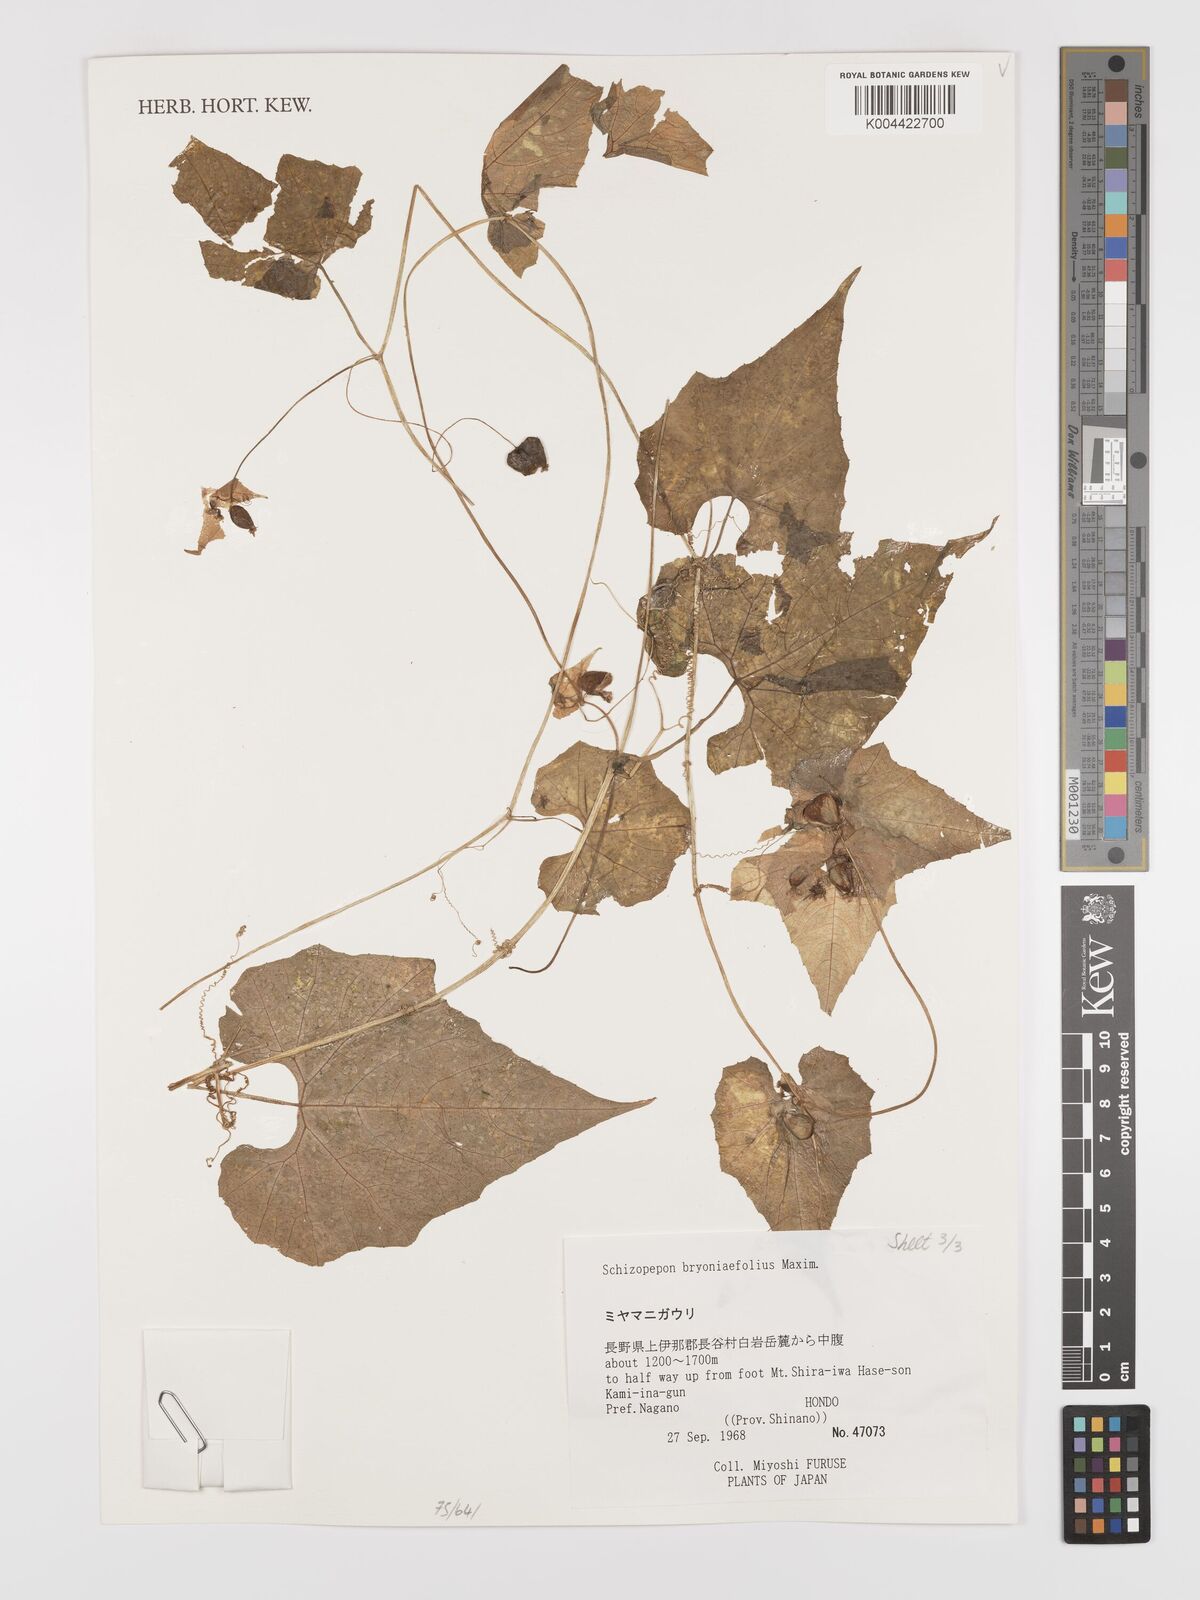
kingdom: Plantae
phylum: Tracheophyta
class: Magnoliopsida
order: Cucurbitales
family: Cucurbitaceae
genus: Schizopepon
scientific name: Schizopepon bryoniifolius
